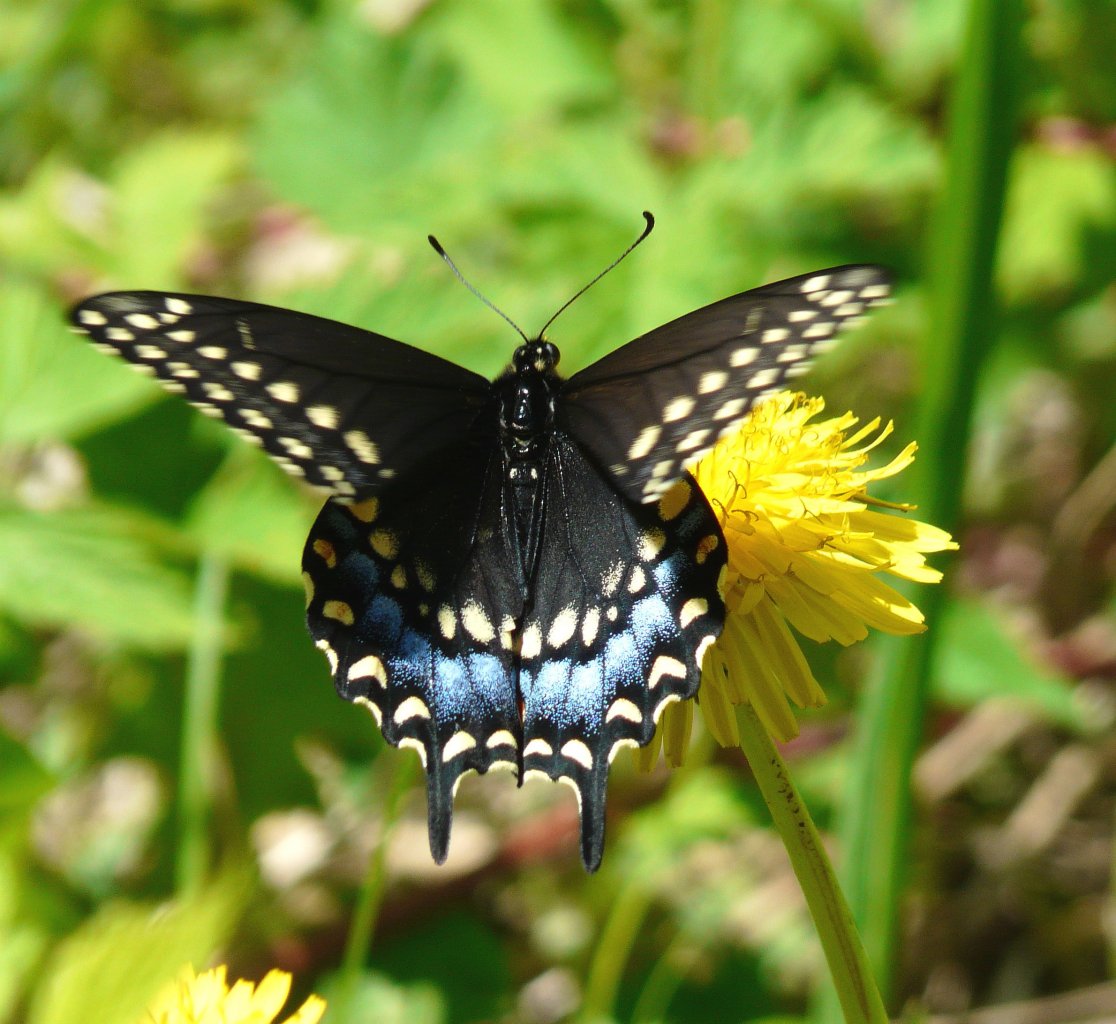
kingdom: Animalia
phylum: Arthropoda
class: Insecta
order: Lepidoptera
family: Papilionidae
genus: Papilio
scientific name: Papilio polyxenes
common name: Black Swallowtail
